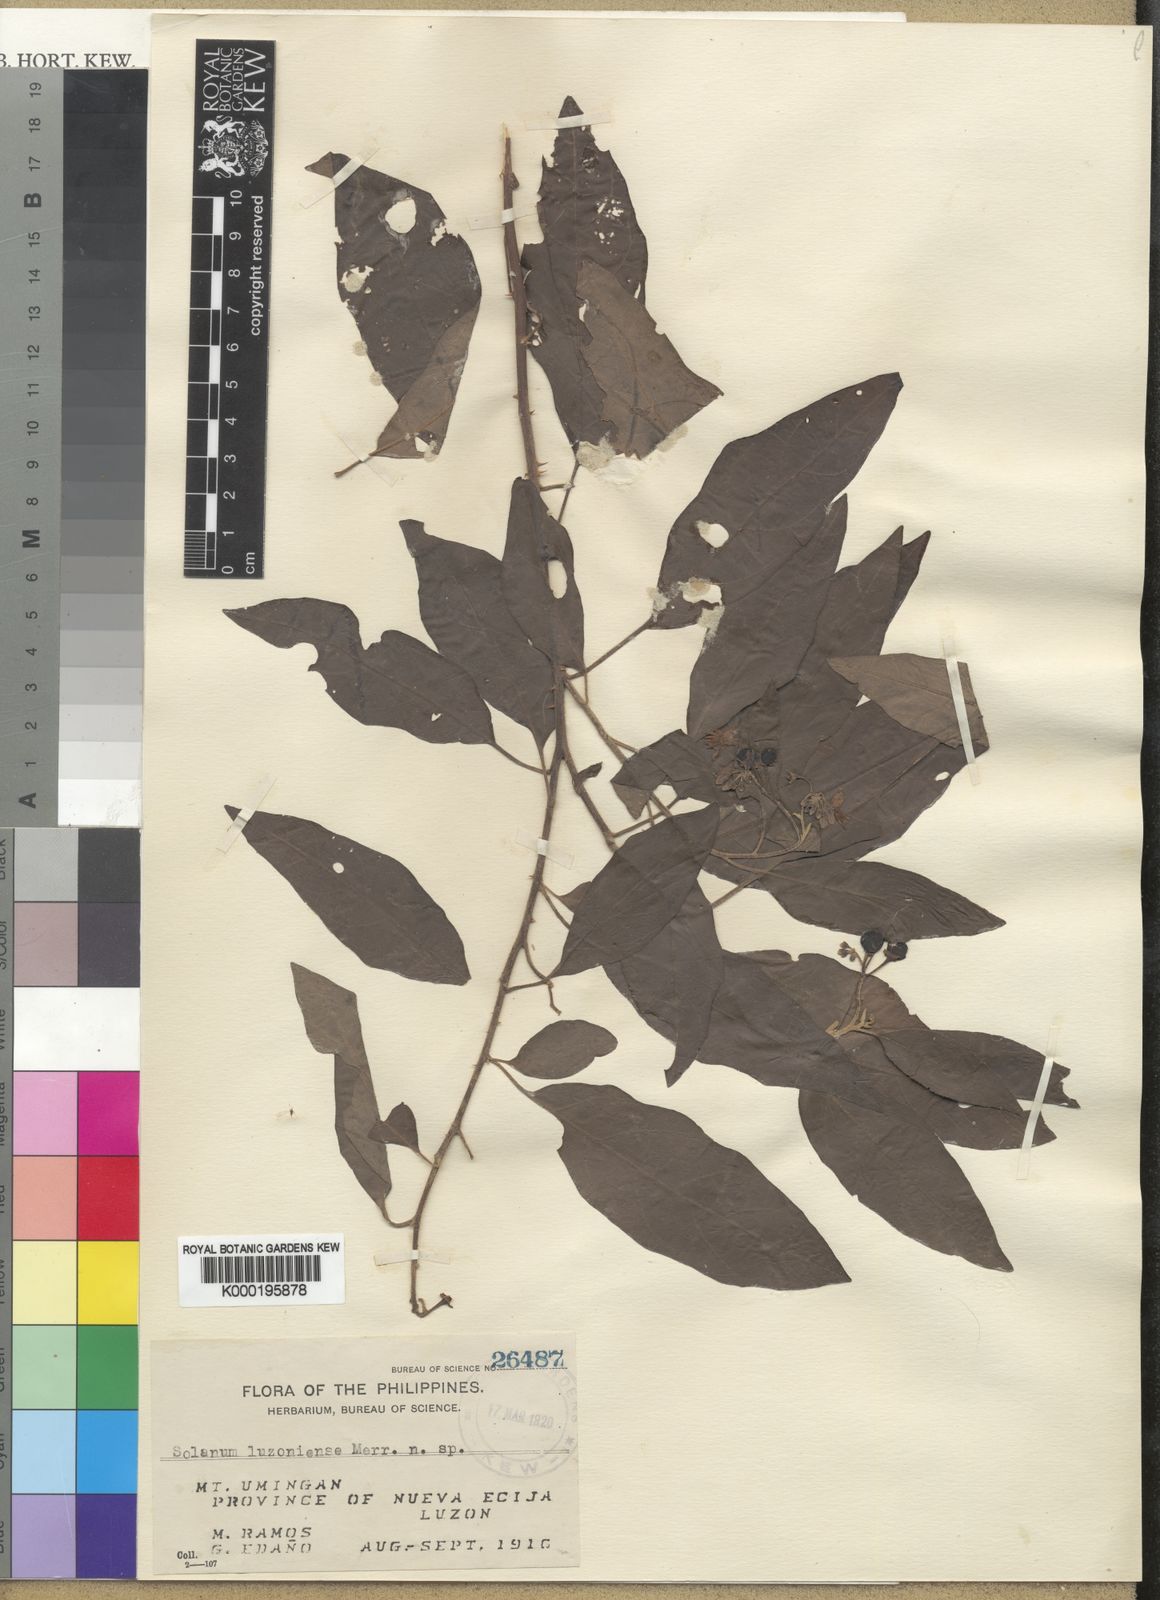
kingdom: Plantae
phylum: Tracheophyta
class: Magnoliopsida
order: Solanales
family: Solanaceae
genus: Solanum
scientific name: Solanum retrorsum
